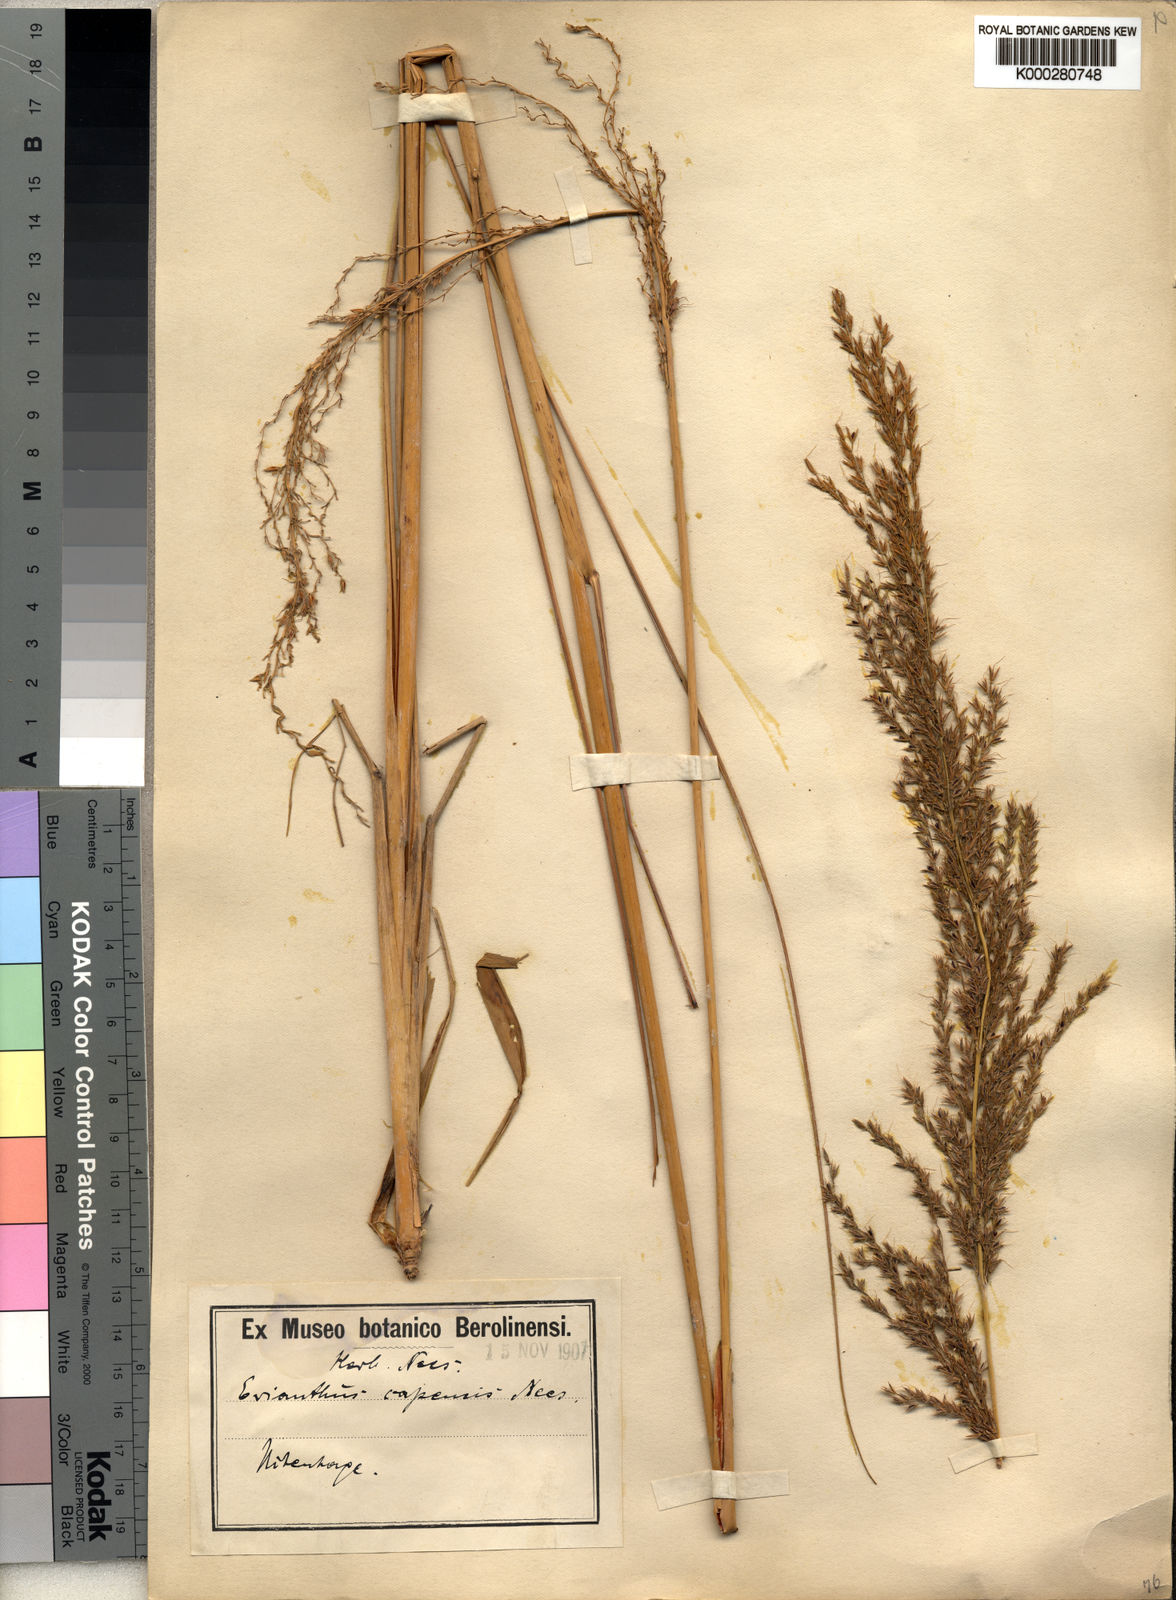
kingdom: Plantae
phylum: Tracheophyta
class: Liliopsida
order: Poales
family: Poaceae
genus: Miscanthus
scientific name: Miscanthus ecklonii
